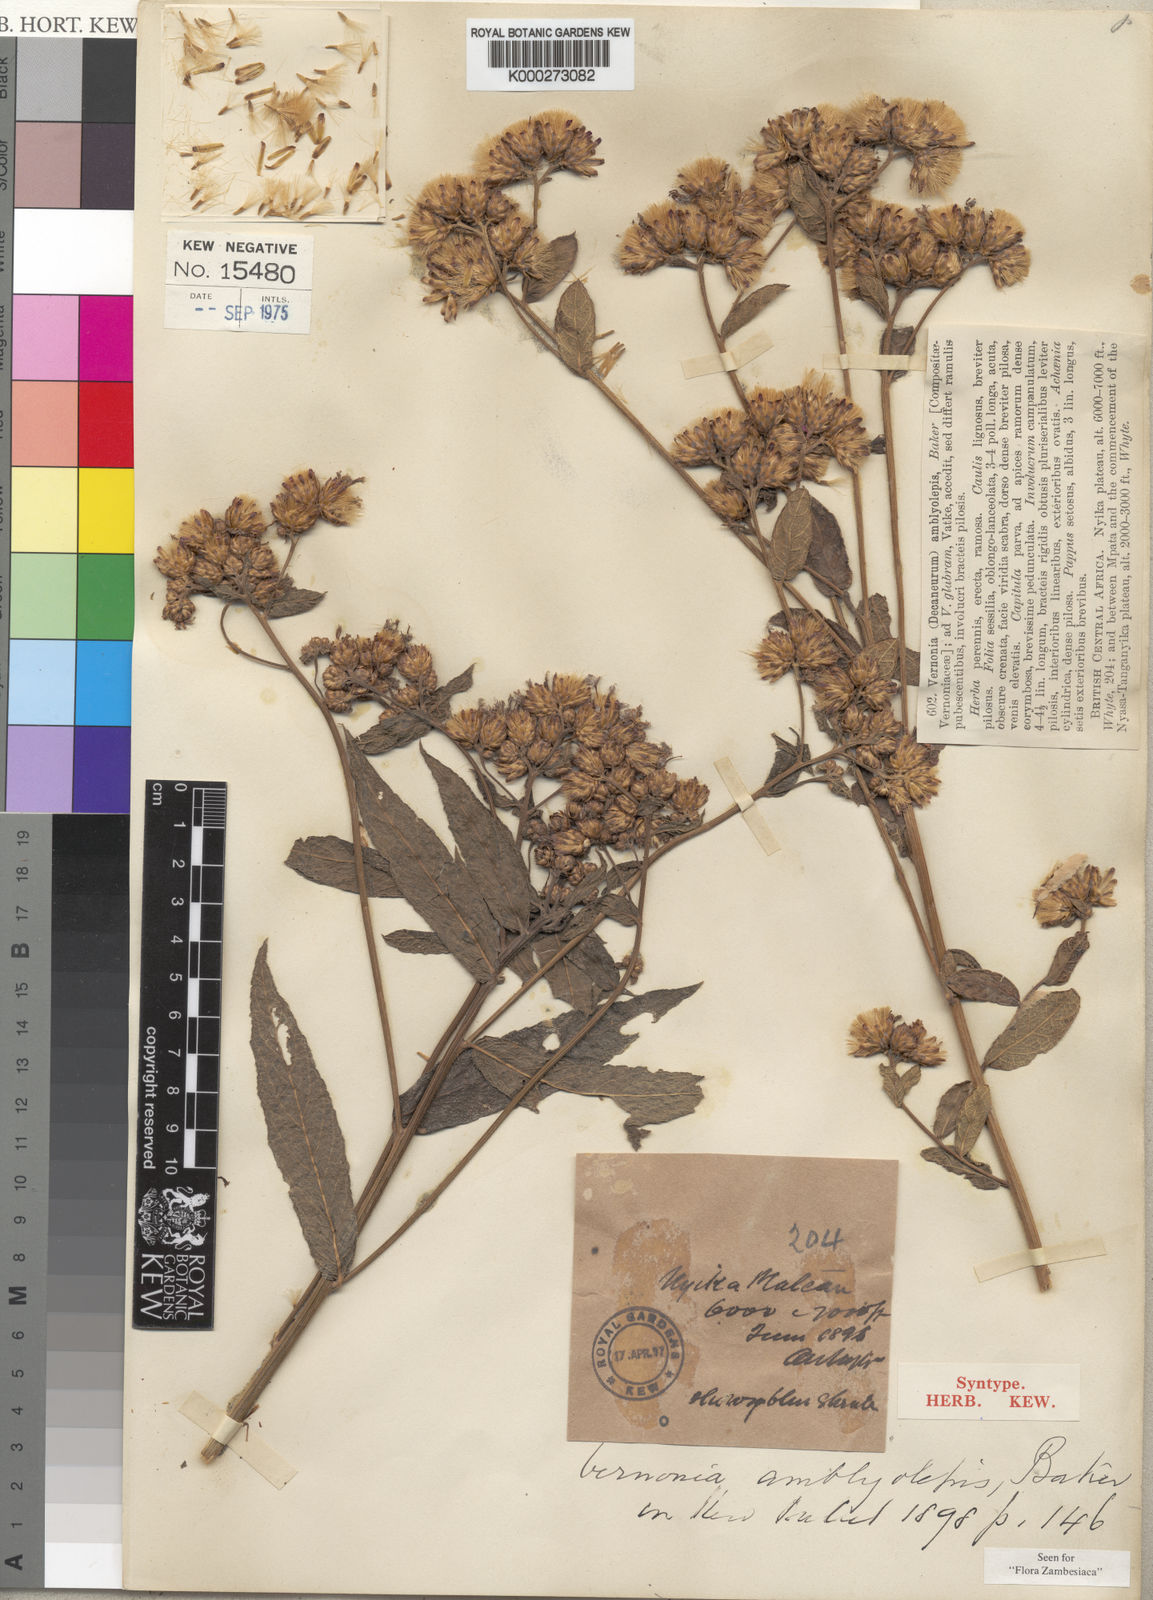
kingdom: Plantae
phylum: Tracheophyta
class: Magnoliopsida
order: Asterales
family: Asteraceae
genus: Nothovernonia
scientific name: Nothovernonia amblyolepis
